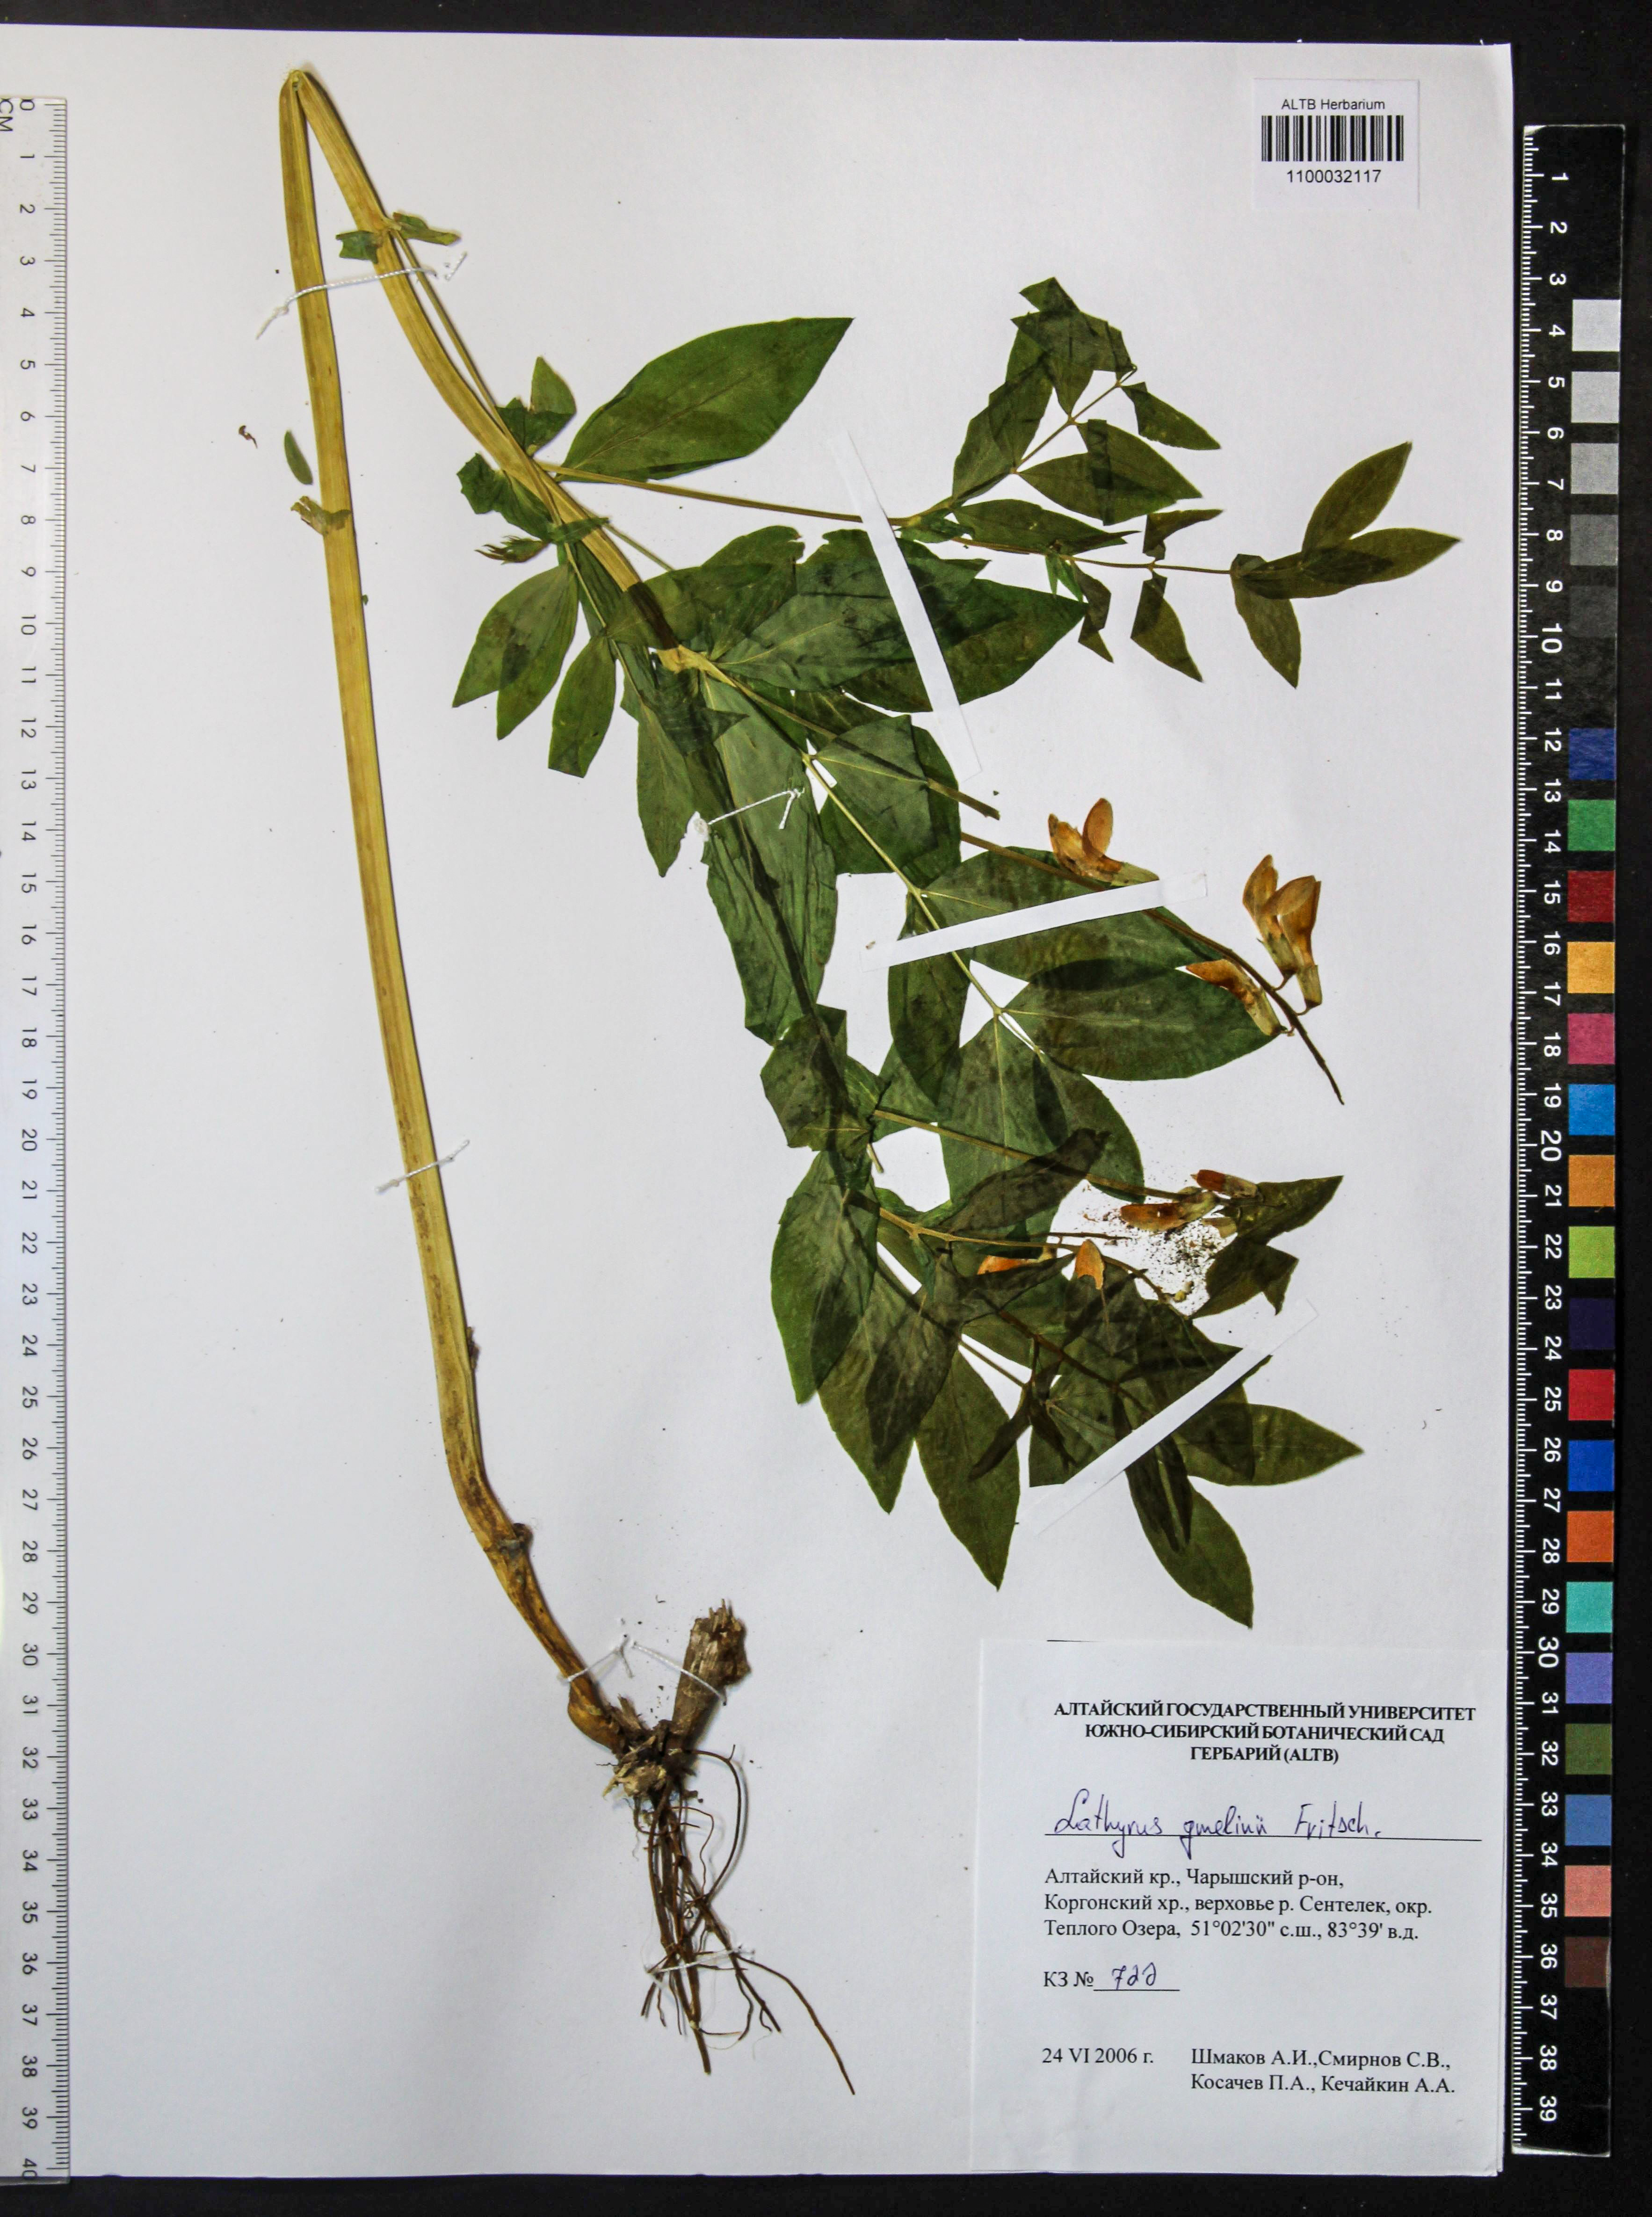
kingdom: Plantae
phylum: Tracheophyta
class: Magnoliopsida
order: Fabales
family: Fabaceae
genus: Lathyrus
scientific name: Lathyrus gmelinii
